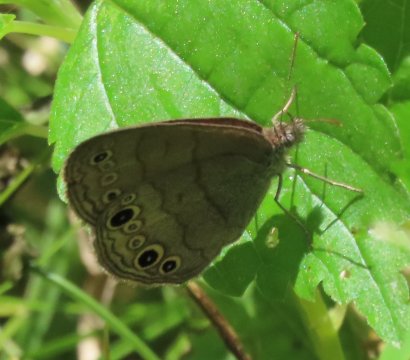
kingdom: Animalia
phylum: Arthropoda
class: Insecta
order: Lepidoptera
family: Nymphalidae
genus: Hermeuptychia
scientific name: Hermeuptychia hermes
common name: Carolina Satyr
